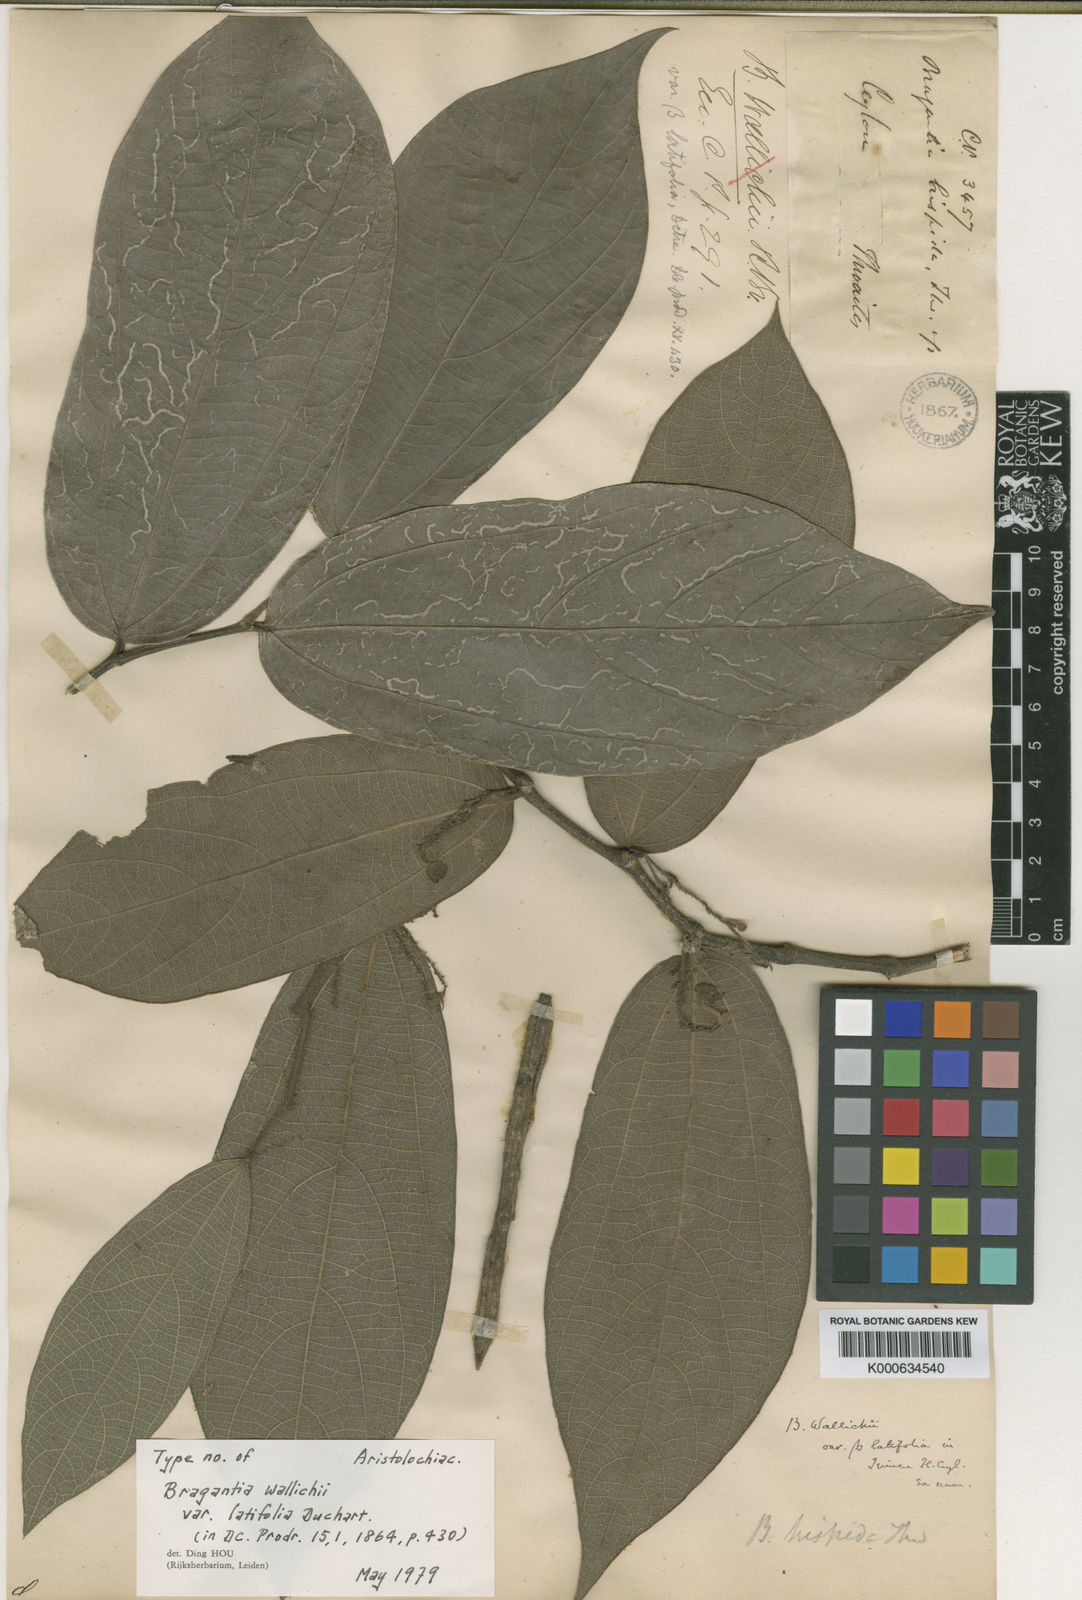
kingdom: Plantae
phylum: Tracheophyta
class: Magnoliopsida
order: Piperales
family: Aristolochiaceae
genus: Thottea
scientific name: Thottea siliquosa
